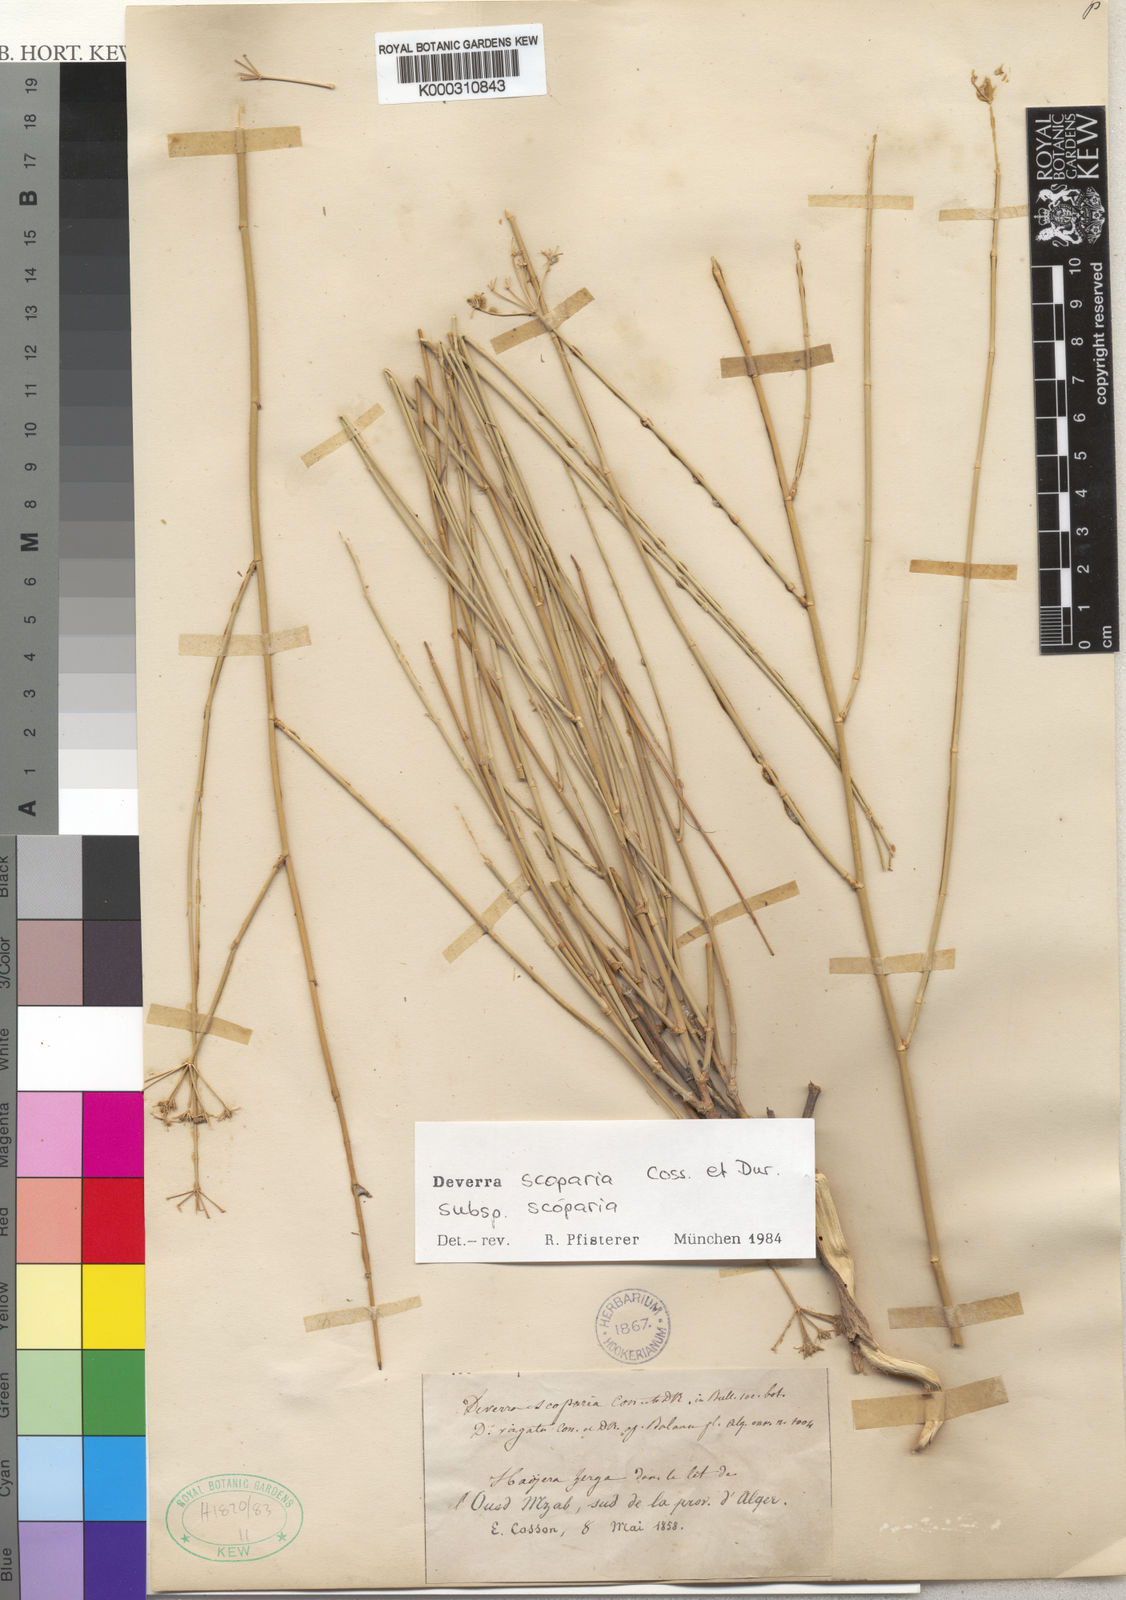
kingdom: Plantae
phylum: Tracheophyta
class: Magnoliopsida
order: Apiales
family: Apiaceae
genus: Deverra
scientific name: Deverra scoparia
